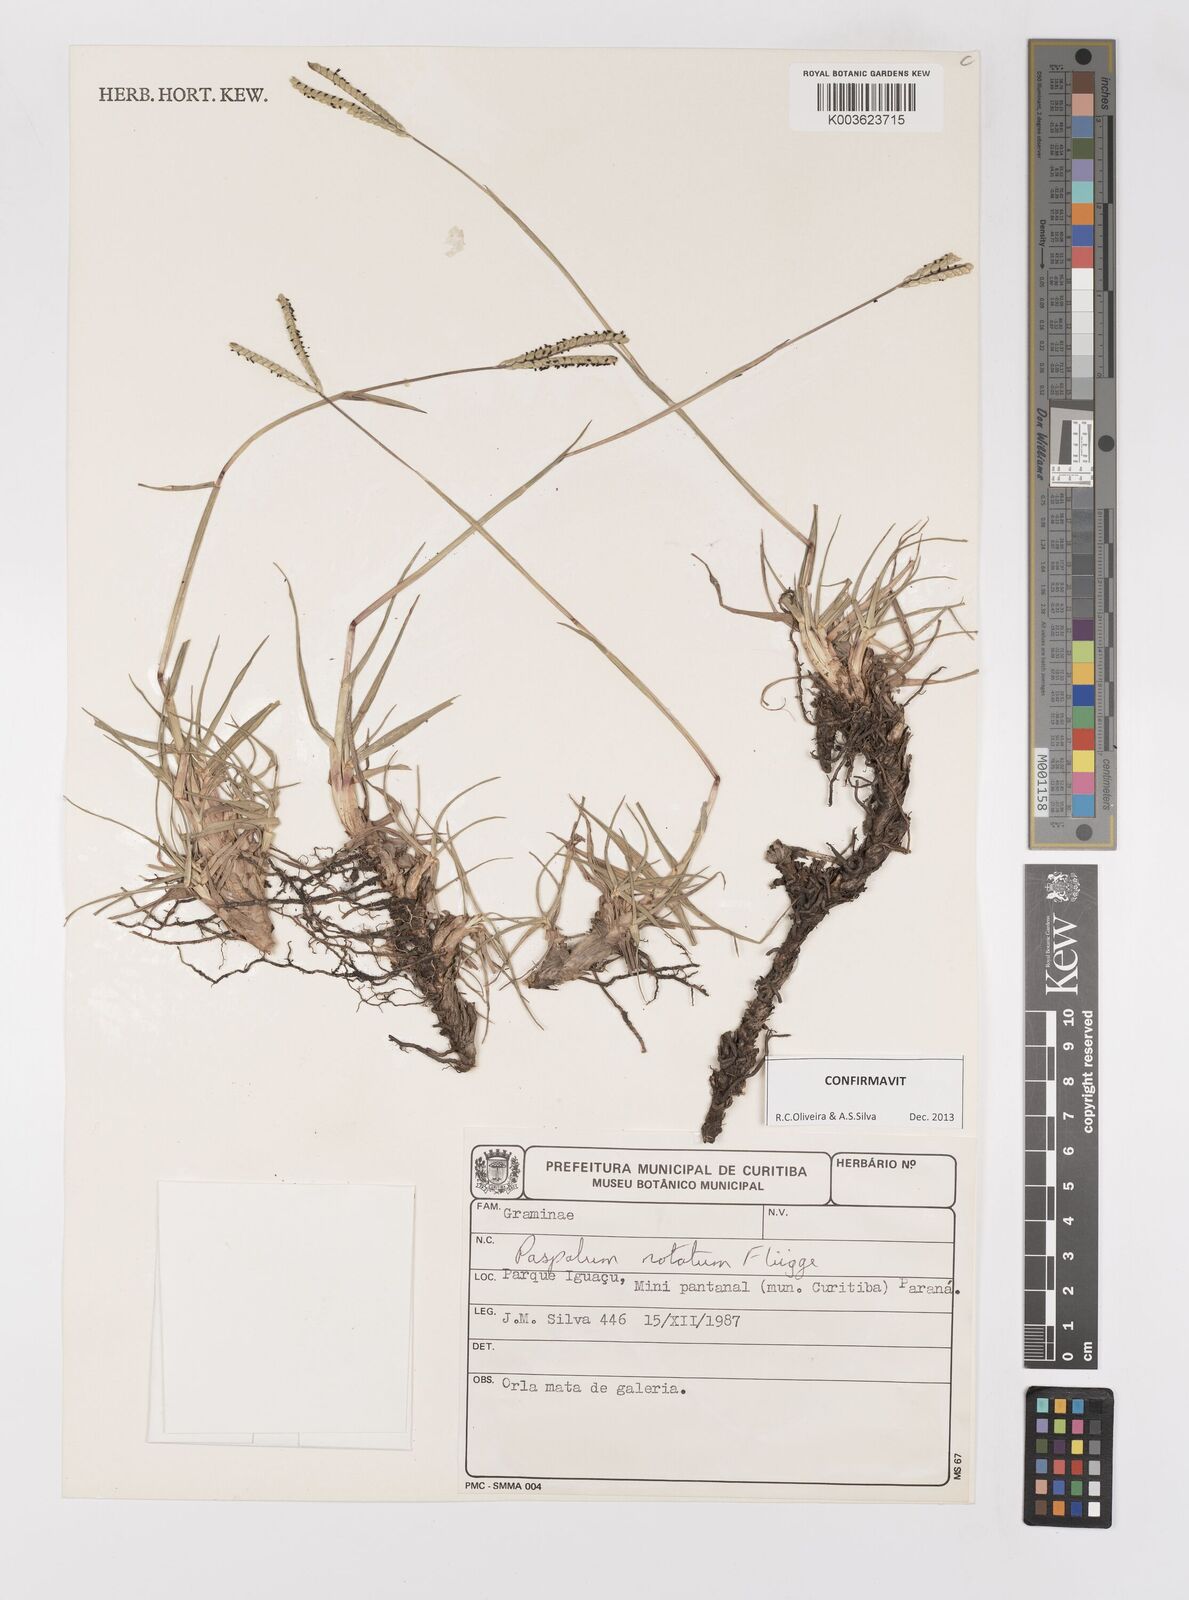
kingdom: Plantae
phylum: Tracheophyta
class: Liliopsida
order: Poales
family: Poaceae
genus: Paspalum
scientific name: Paspalum notatum
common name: Bahiagrass
